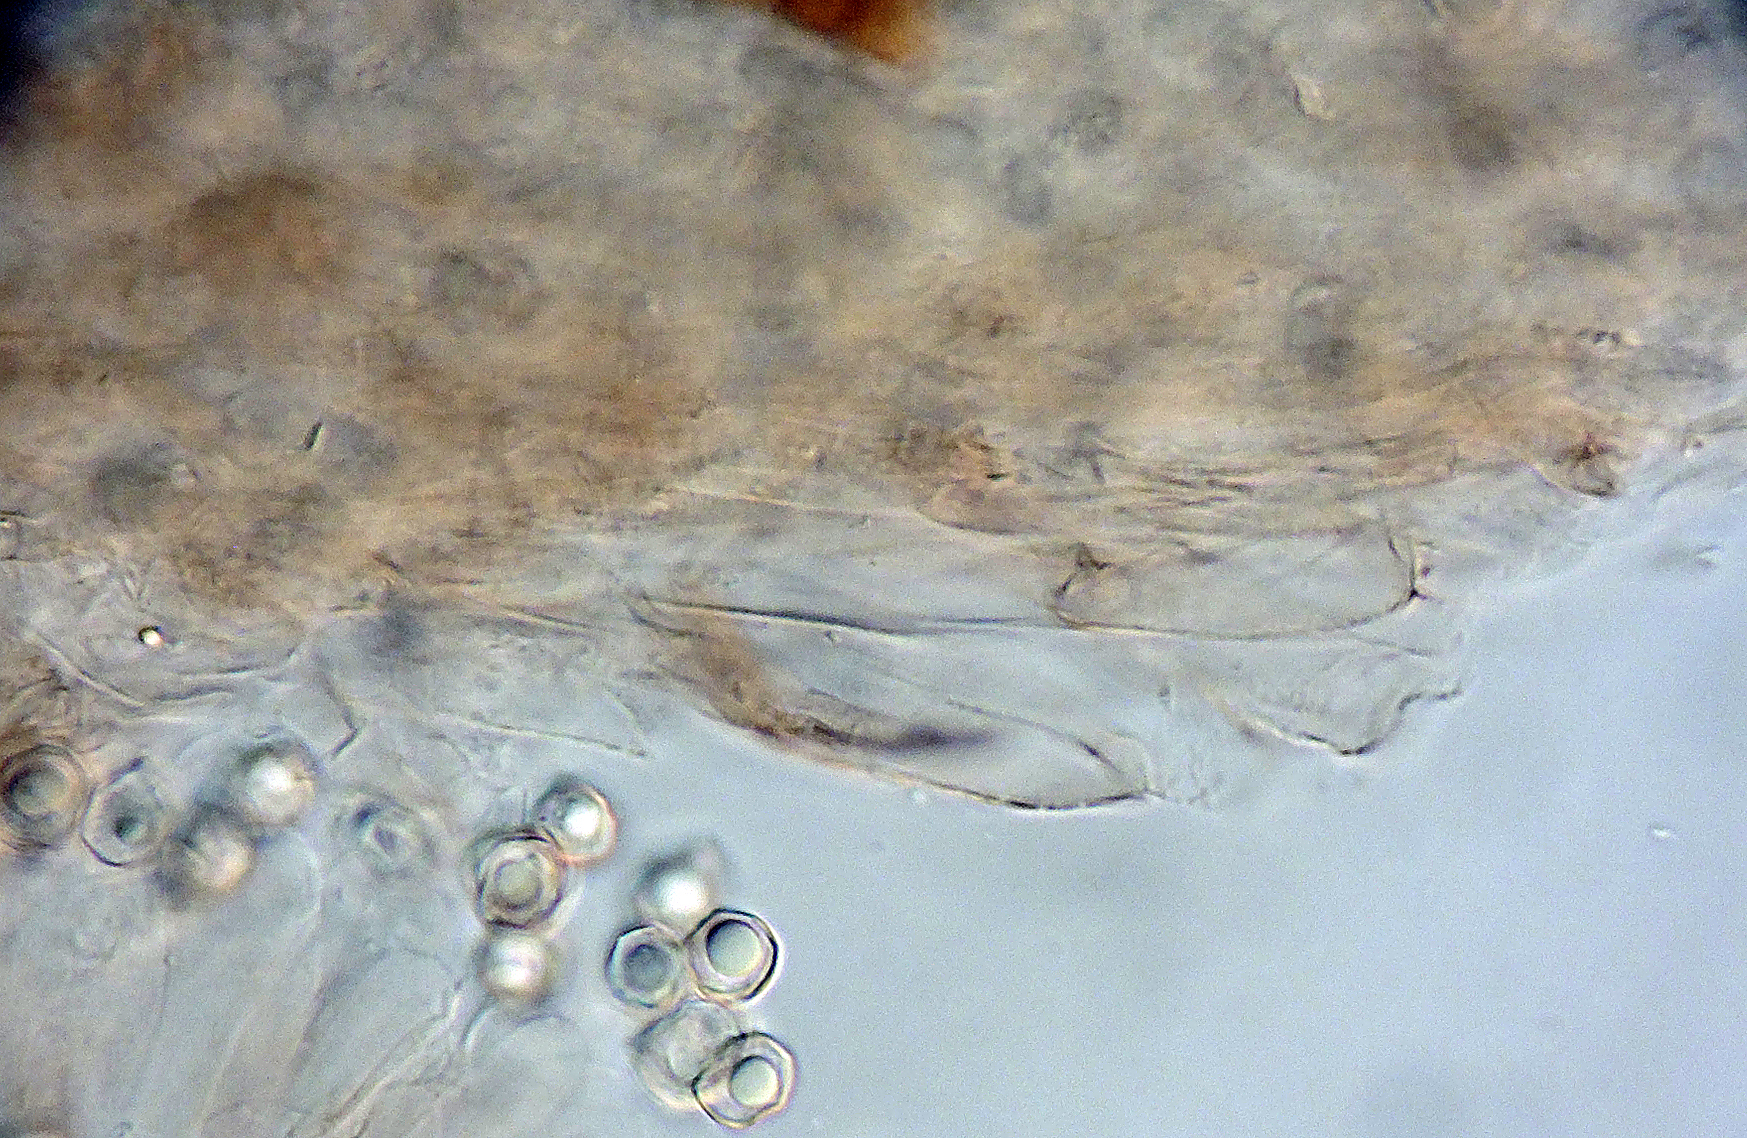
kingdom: Fungi
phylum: Basidiomycota
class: Agaricomycetes
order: Agaricales
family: Entolomataceae
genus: Entoloma
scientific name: Entoloma graphitipes
